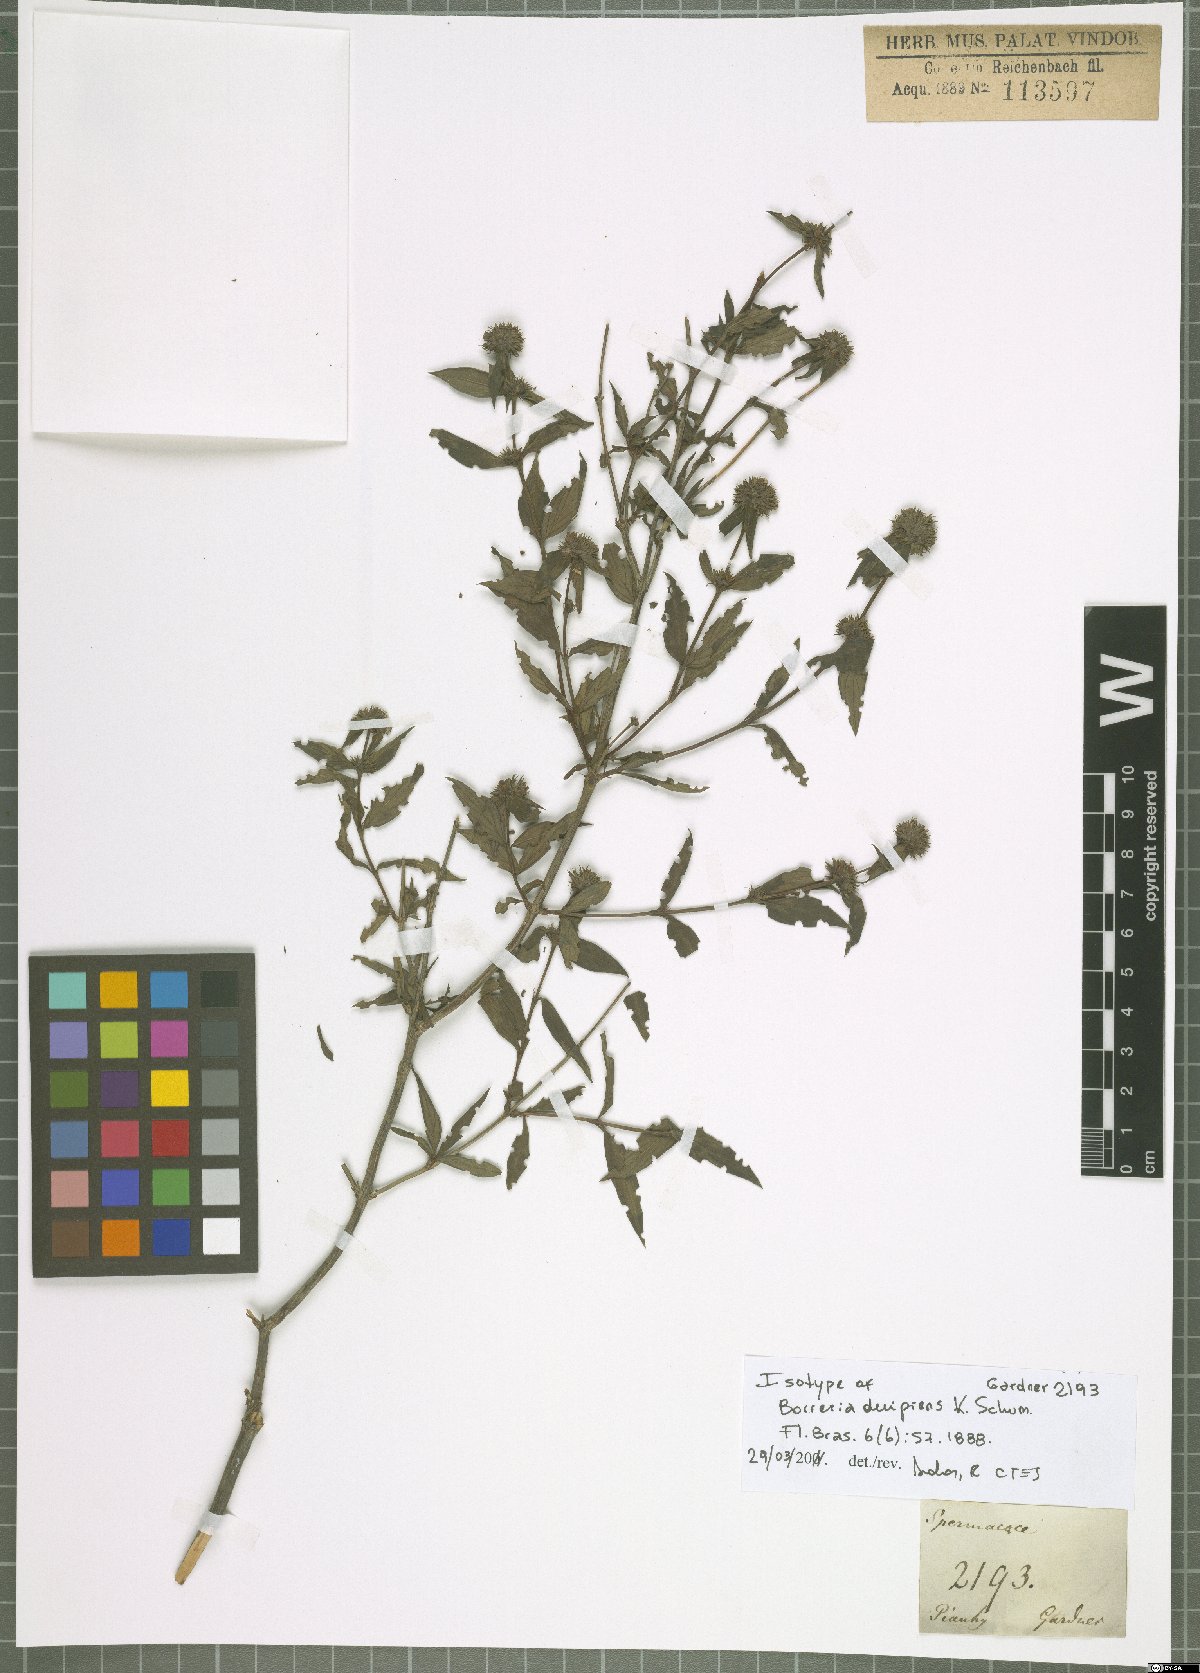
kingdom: Plantae
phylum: Tracheophyta
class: Magnoliopsida
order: Gentianales
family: Rubiaceae
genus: Spermacoce
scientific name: Spermacoce decipiens
